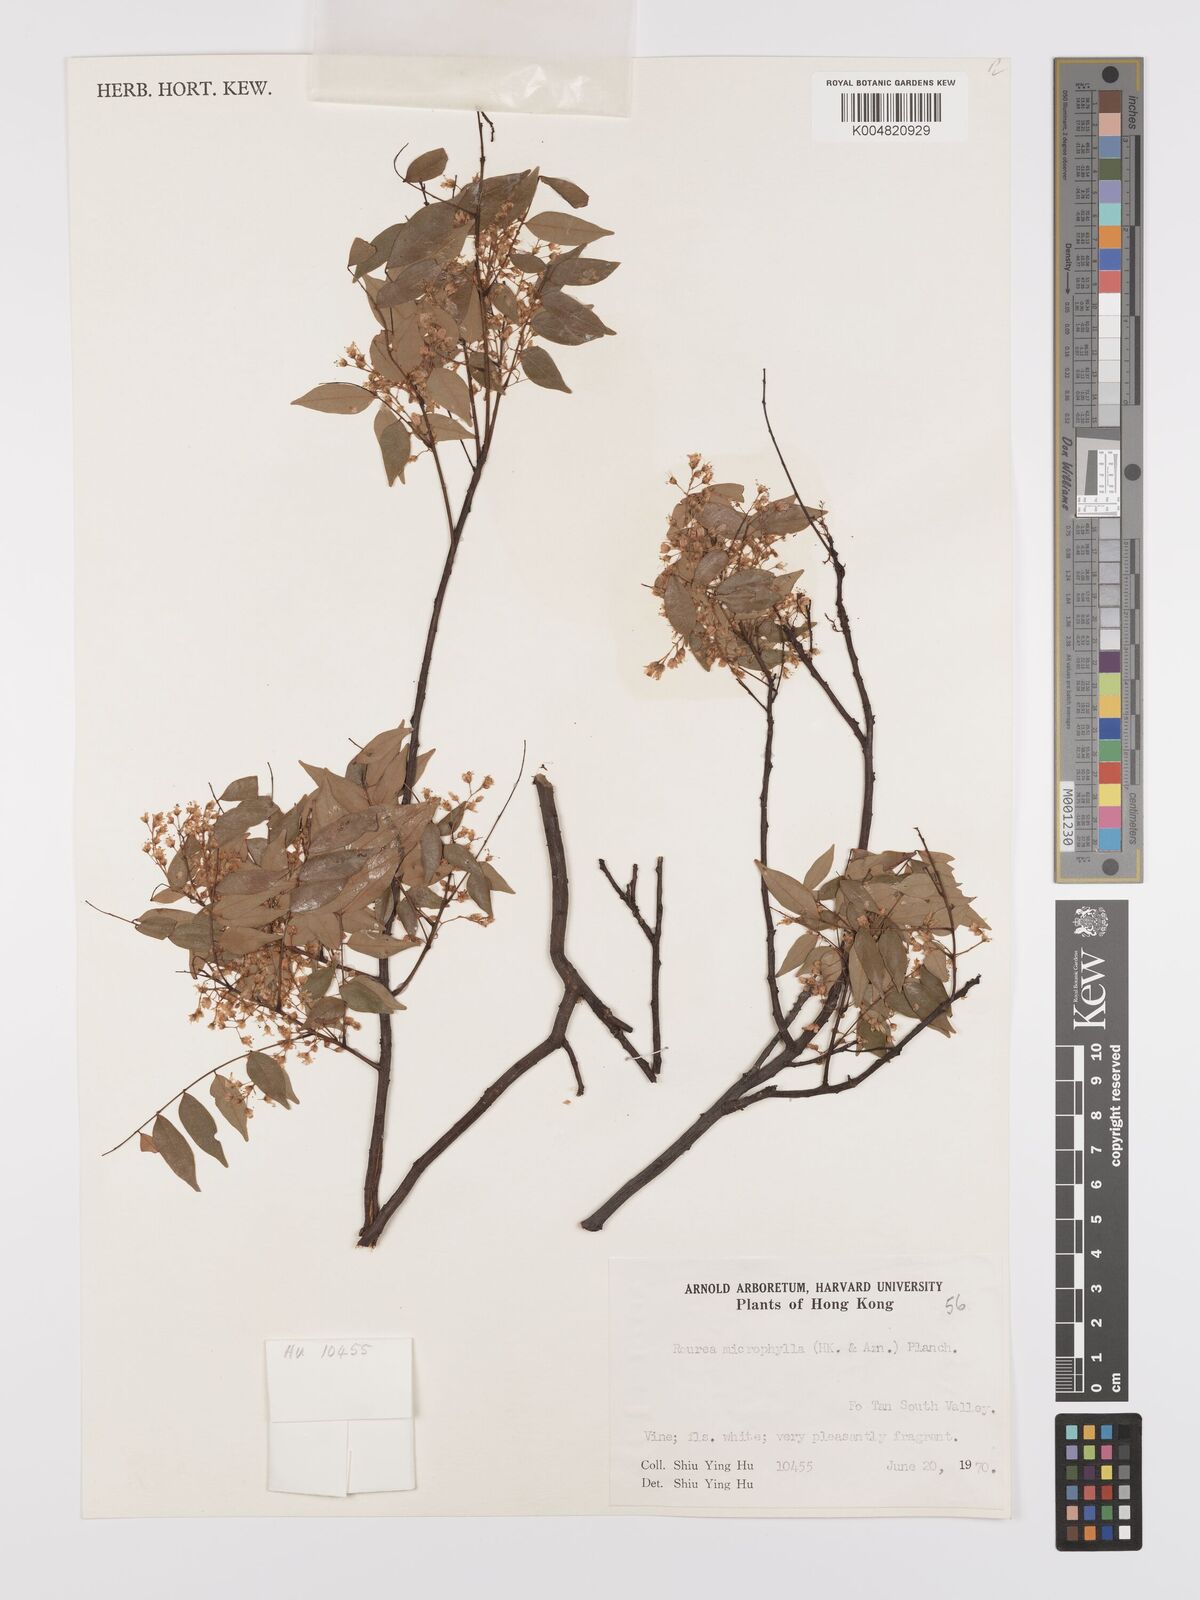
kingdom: Plantae
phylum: Tracheophyta
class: Magnoliopsida
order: Oxalidales
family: Connaraceae
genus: Rourea
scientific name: Rourea microphylla
